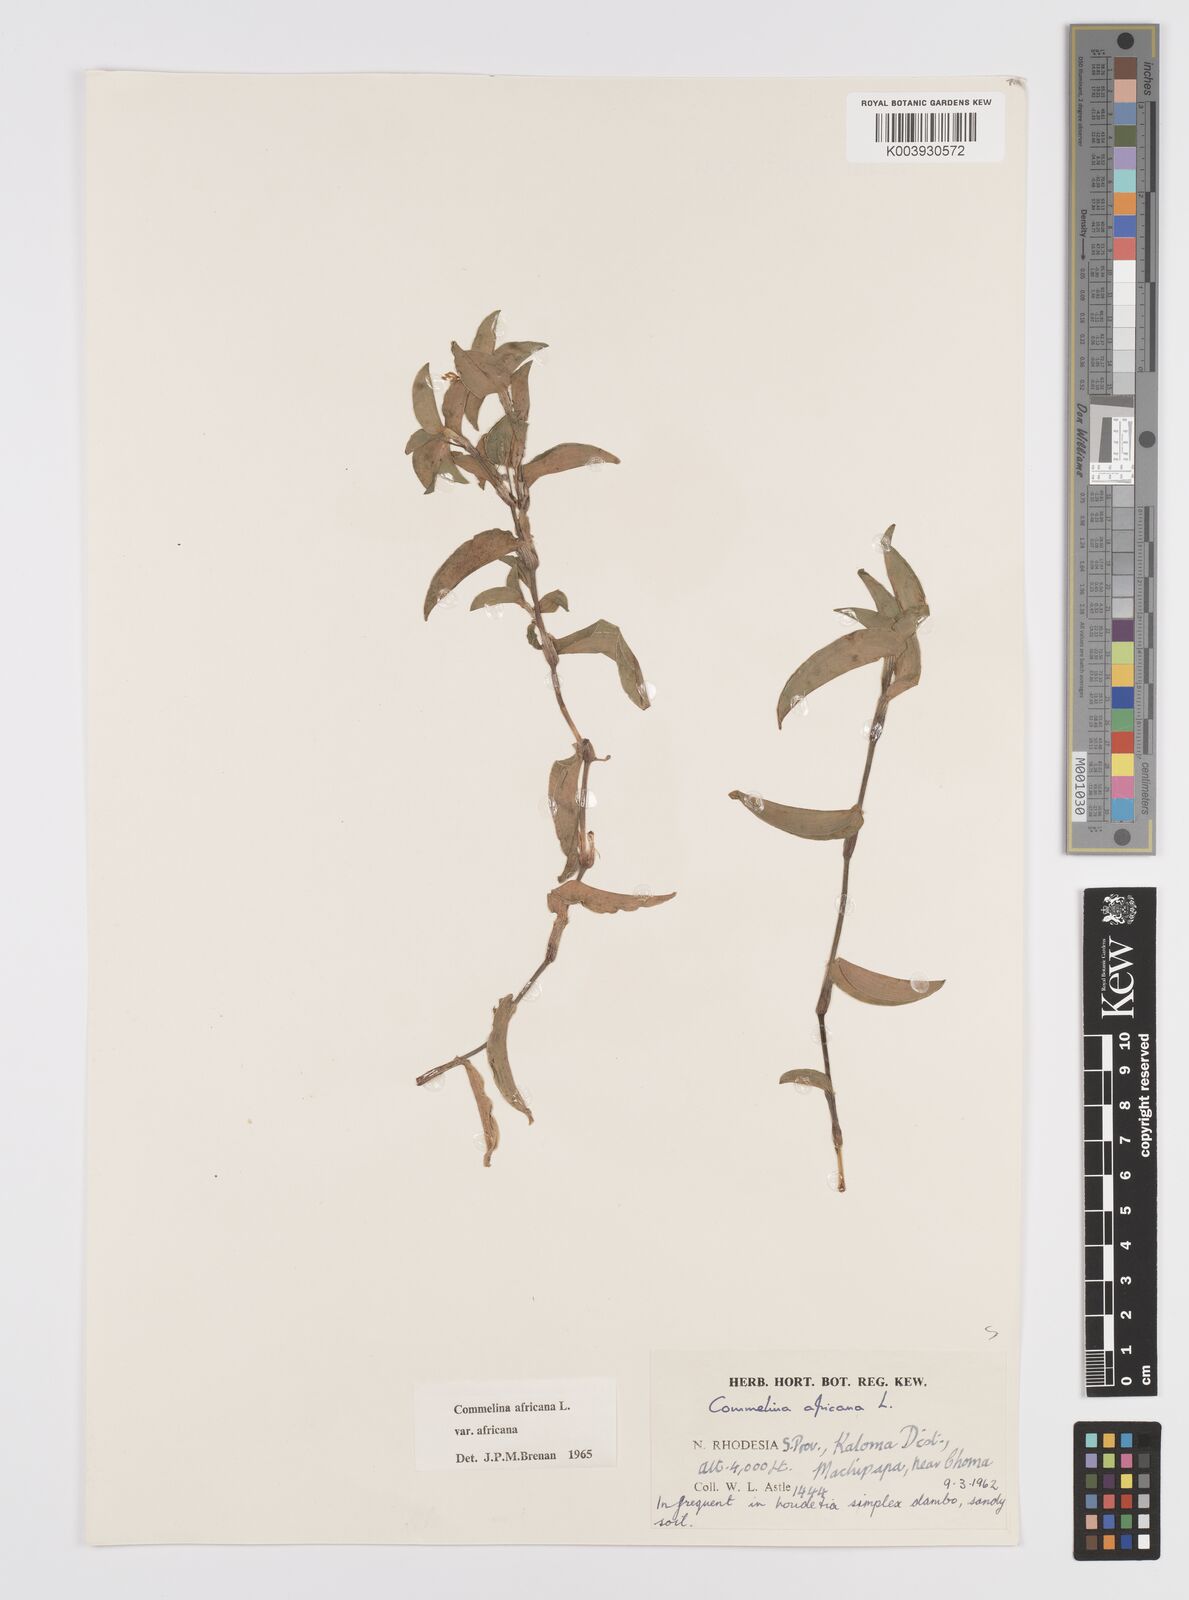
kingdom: Plantae
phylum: Tracheophyta
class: Liliopsida
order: Commelinales
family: Commelinaceae
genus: Commelina
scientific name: Commelina africana
